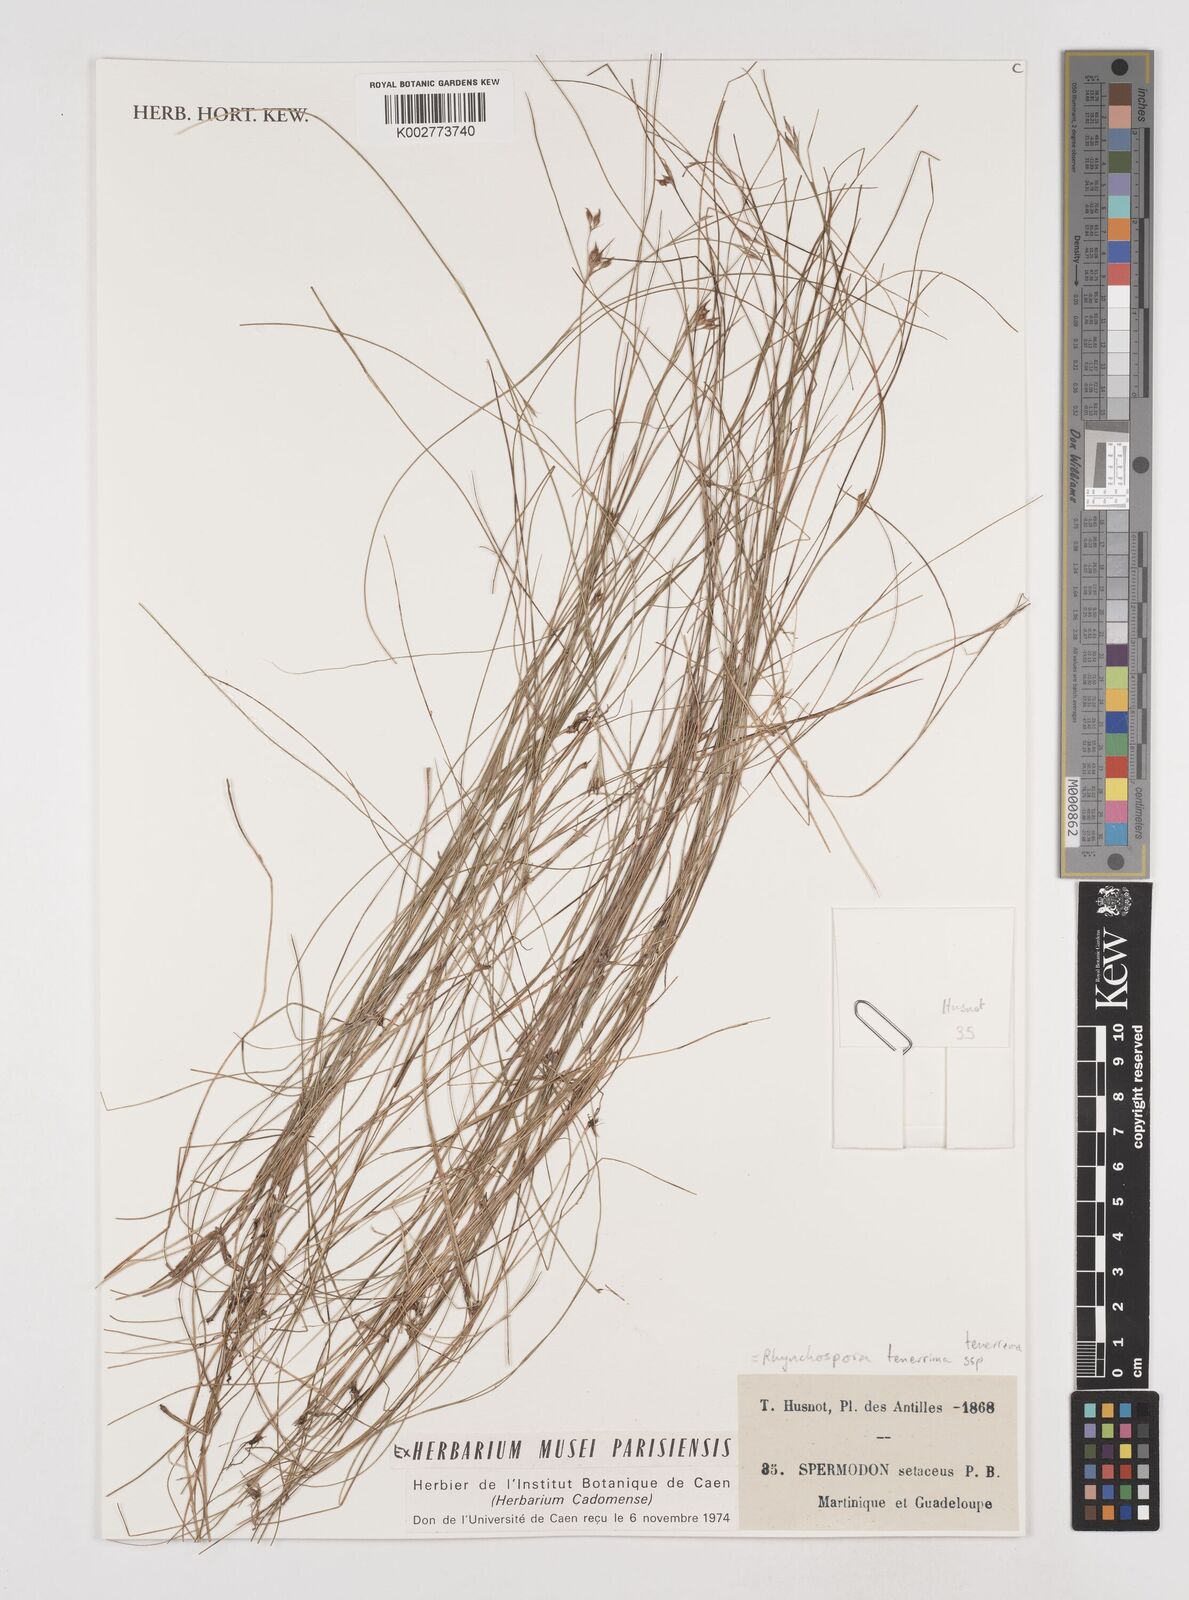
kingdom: Plantae
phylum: Tracheophyta
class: Liliopsida
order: Poales
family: Cyperaceae
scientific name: Cyperaceae
